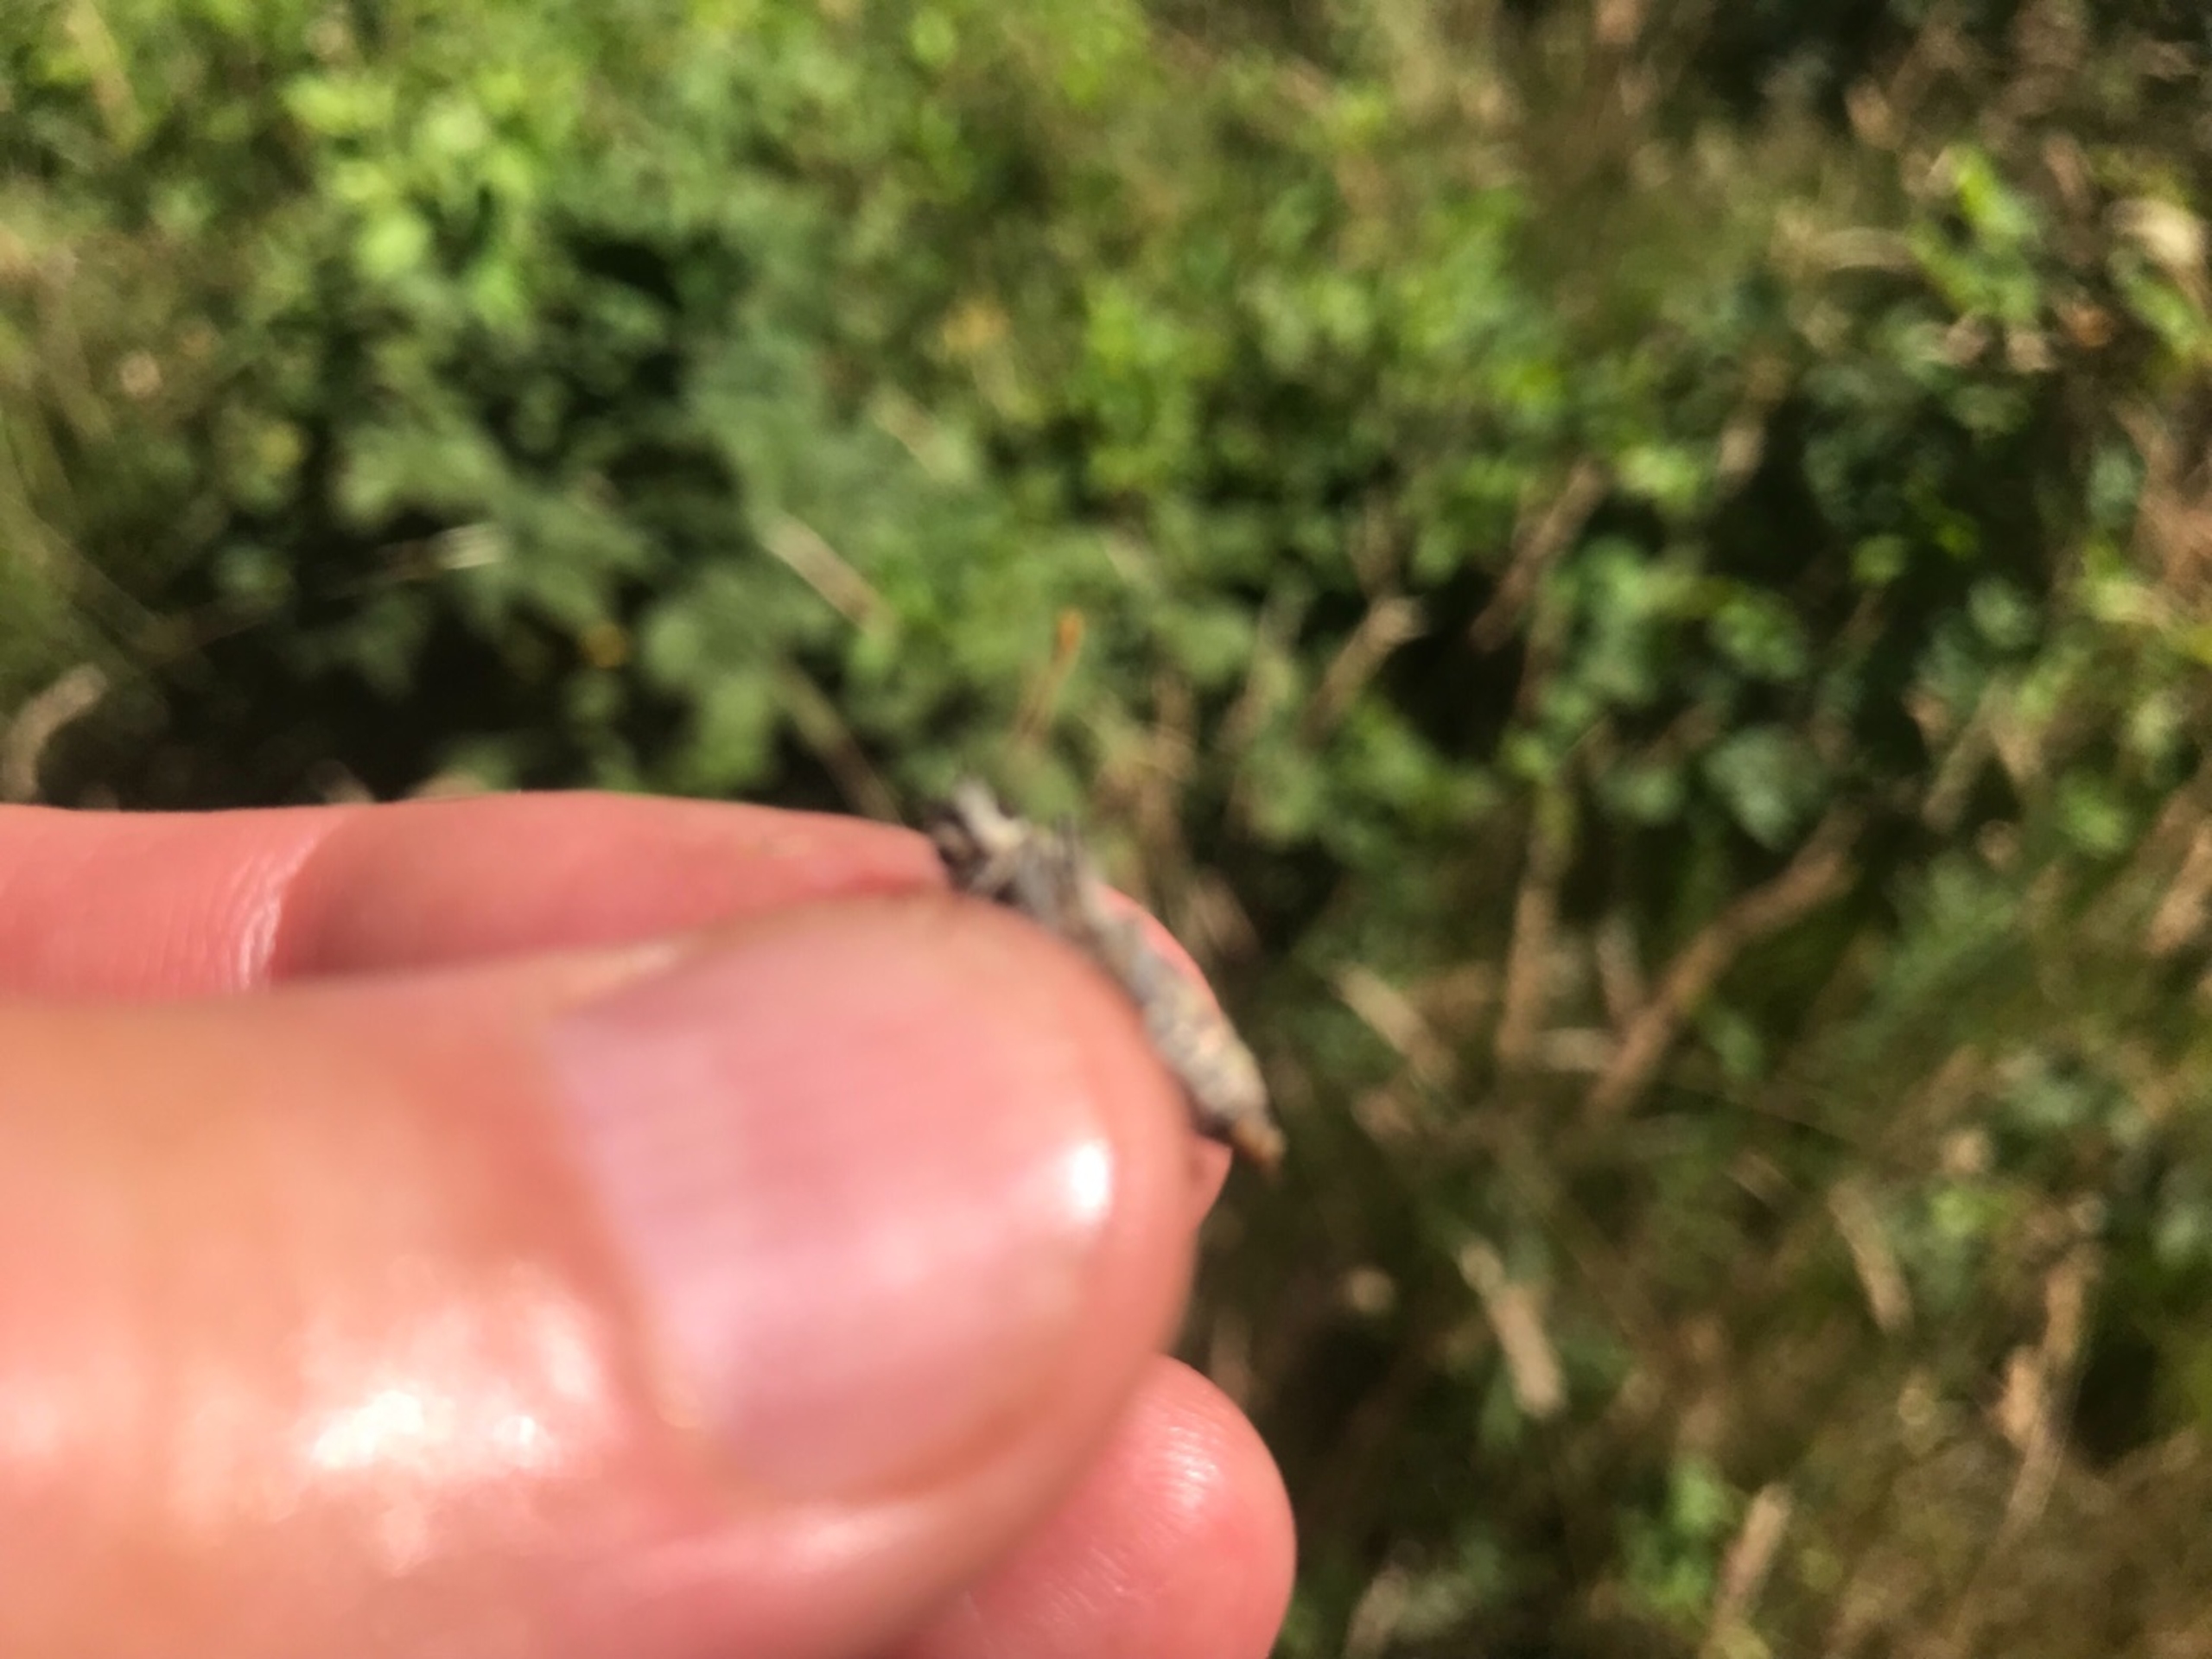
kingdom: Animalia
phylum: Arthropoda
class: Insecta
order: Lepidoptera
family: Hesperiidae
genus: Thymelicus
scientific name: Thymelicus sylvestris
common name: Skråstregbredpande
